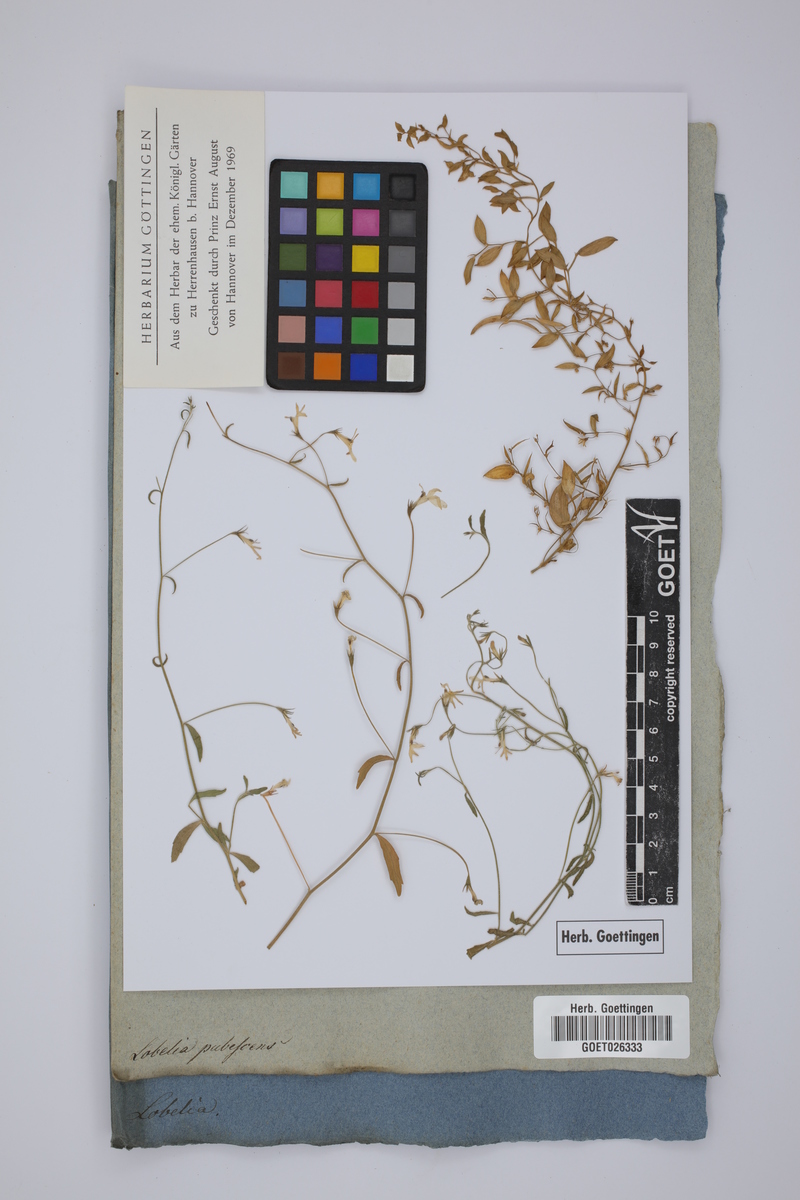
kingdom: Plantae
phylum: Tracheophyta
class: Magnoliopsida
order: Asterales
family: Campanulaceae
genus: Lobelia
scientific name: Lobelia pubescens
